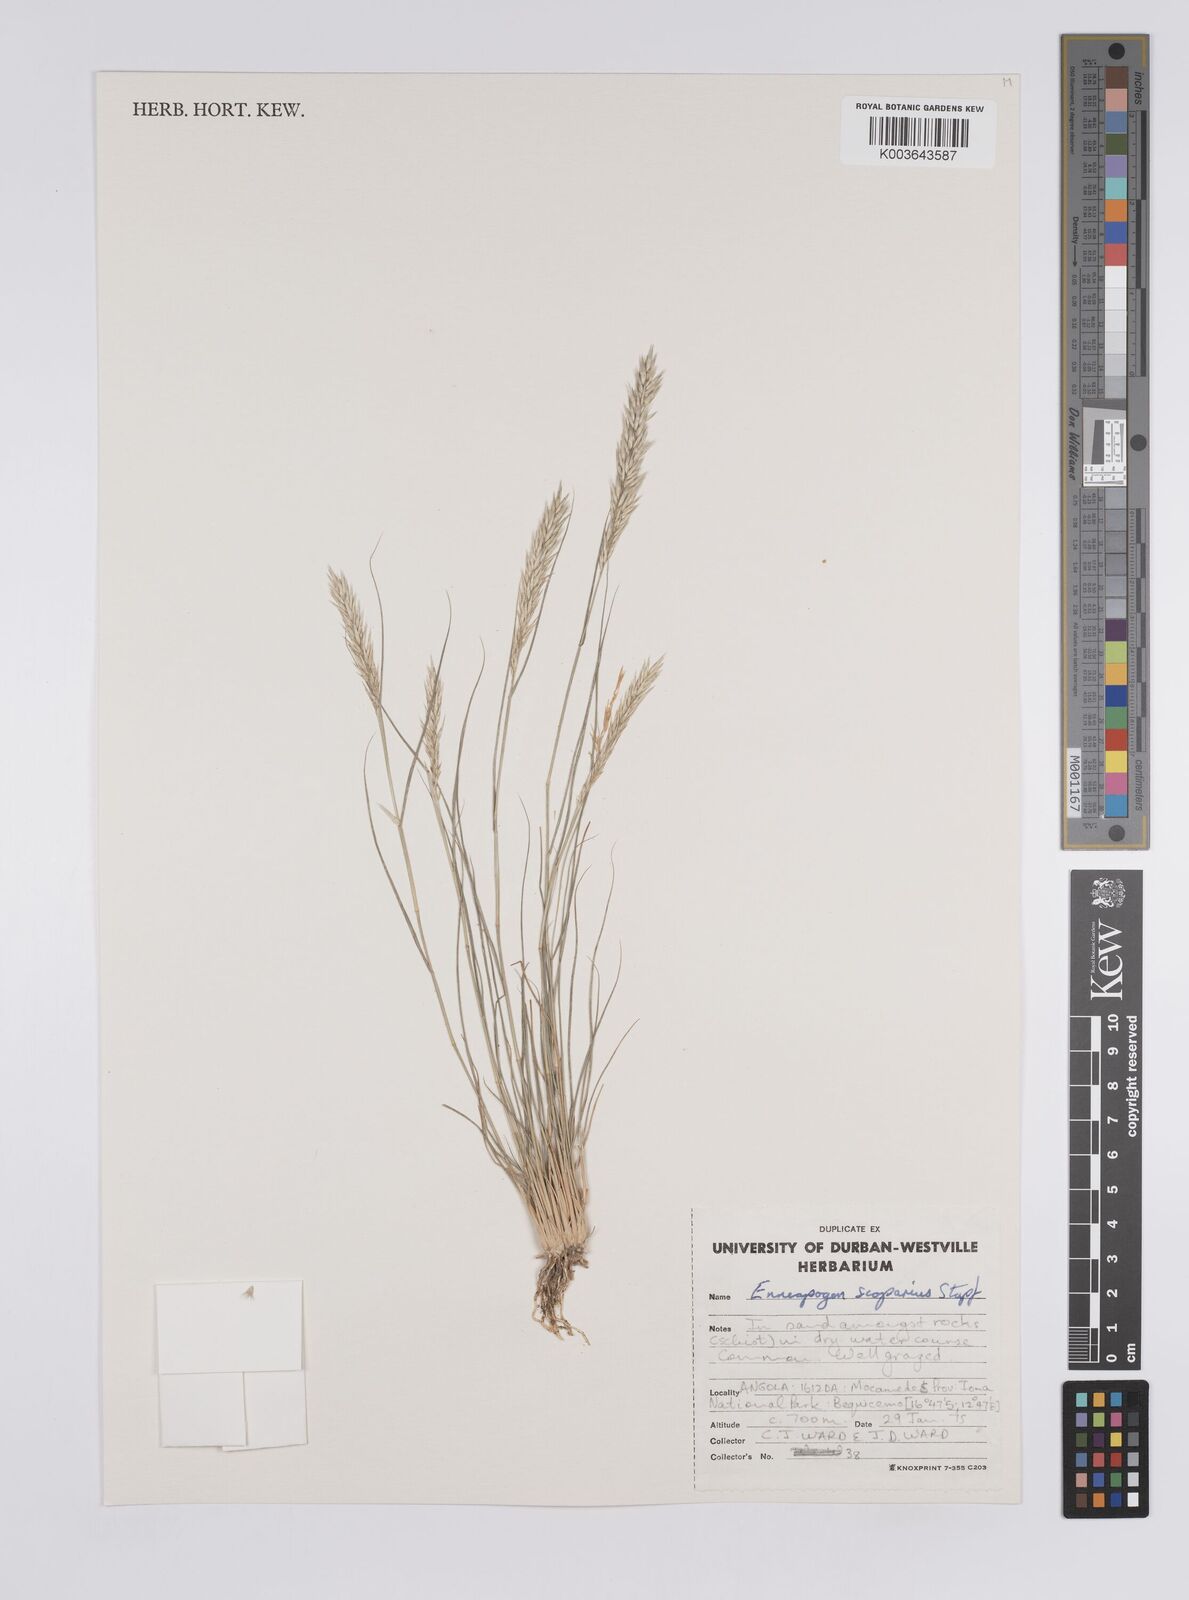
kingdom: Plantae
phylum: Tracheophyta
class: Liliopsida
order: Poales
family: Poaceae
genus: Enneapogon
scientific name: Enneapogon scoparius
